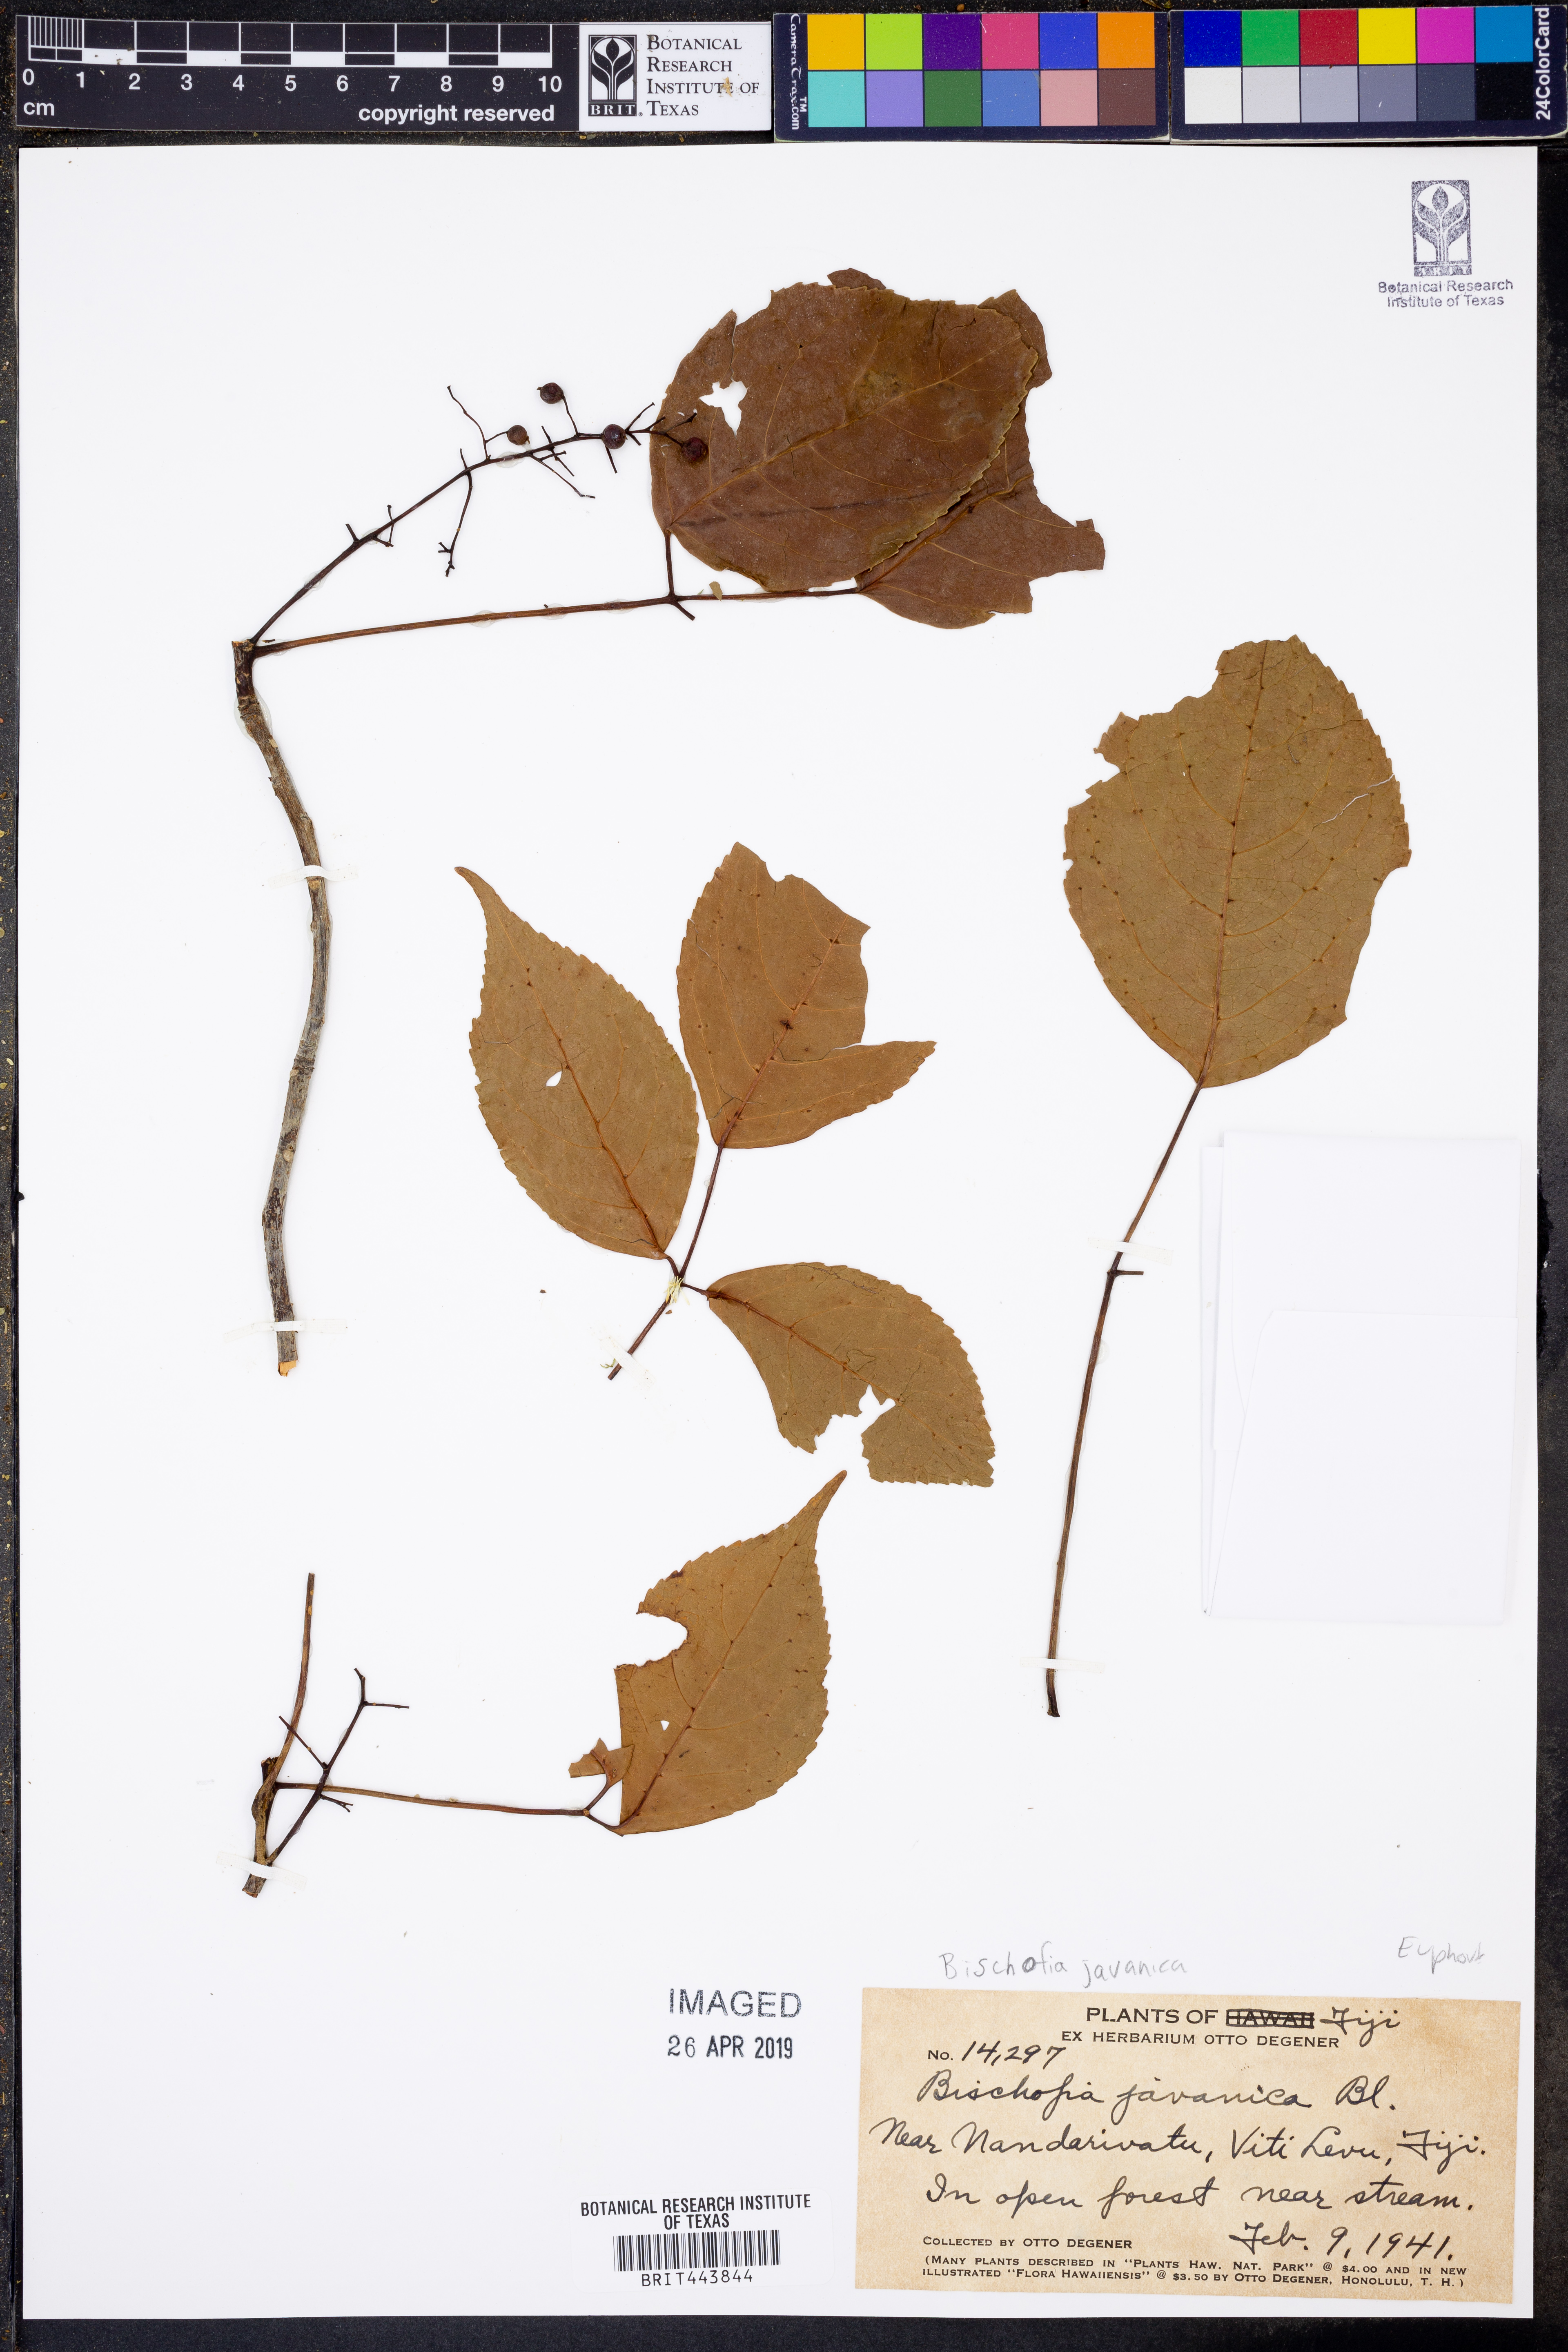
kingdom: Plantae
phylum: Tracheophyta
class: Magnoliopsida
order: Malpighiales
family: Phyllanthaceae
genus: Bischofia
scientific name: Bischofia javanica
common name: Javanese bishopwood
